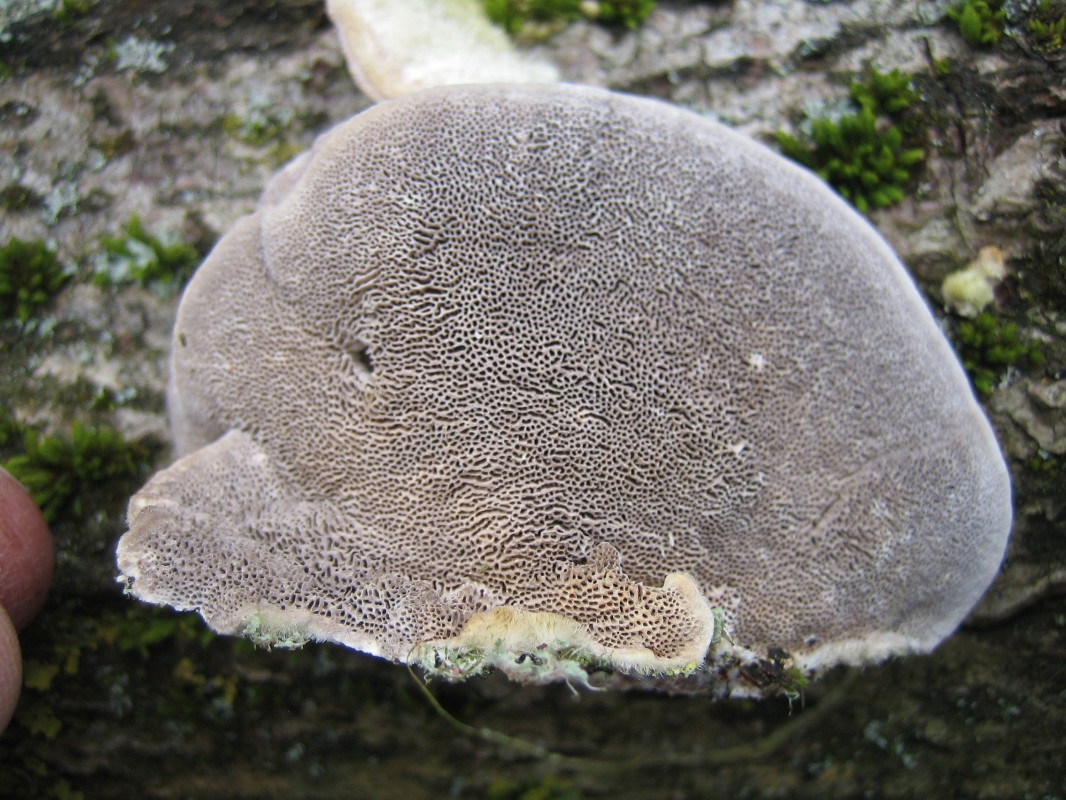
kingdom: Fungi
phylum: Basidiomycota
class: Agaricomycetes
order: Polyporales
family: Polyporaceae
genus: Trametes
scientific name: Trametes hirsuta
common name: håret læderporesvamp
